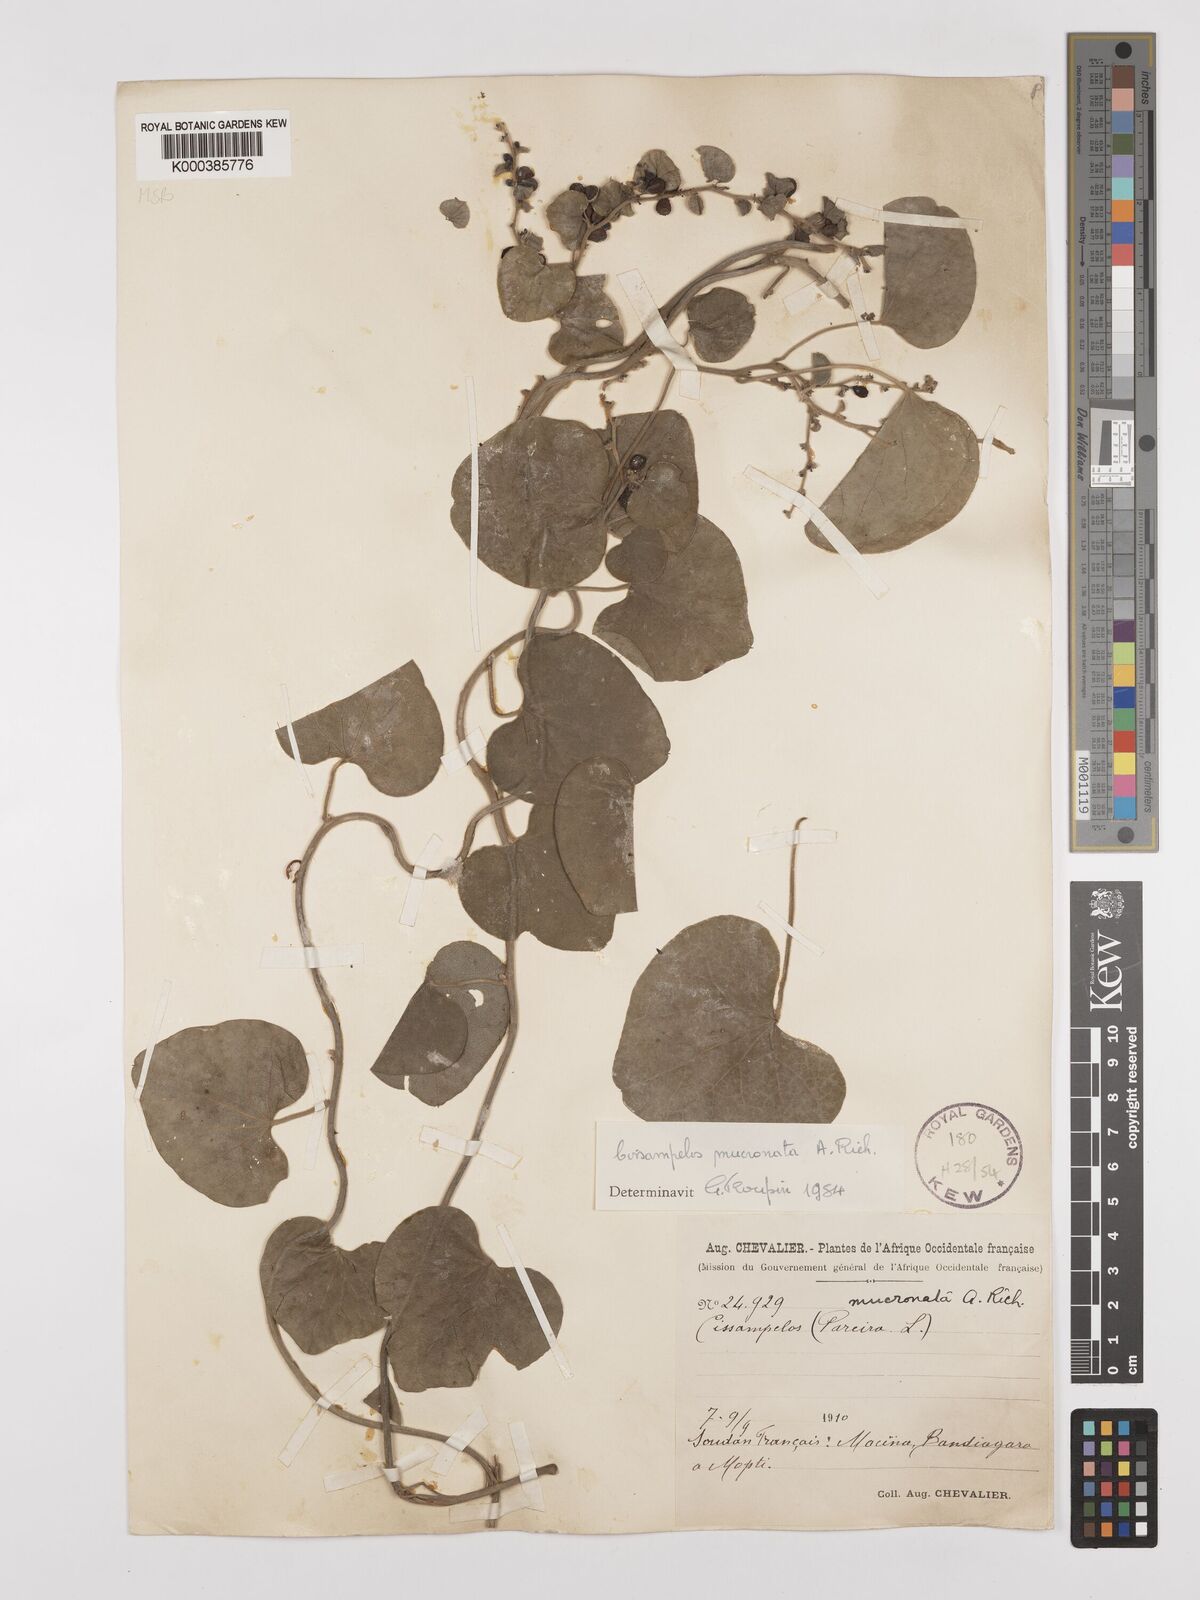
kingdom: Plantae
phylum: Tracheophyta
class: Magnoliopsida
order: Ranunculales
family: Menispermaceae
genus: Cissampelos
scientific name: Cissampelos mucronata
